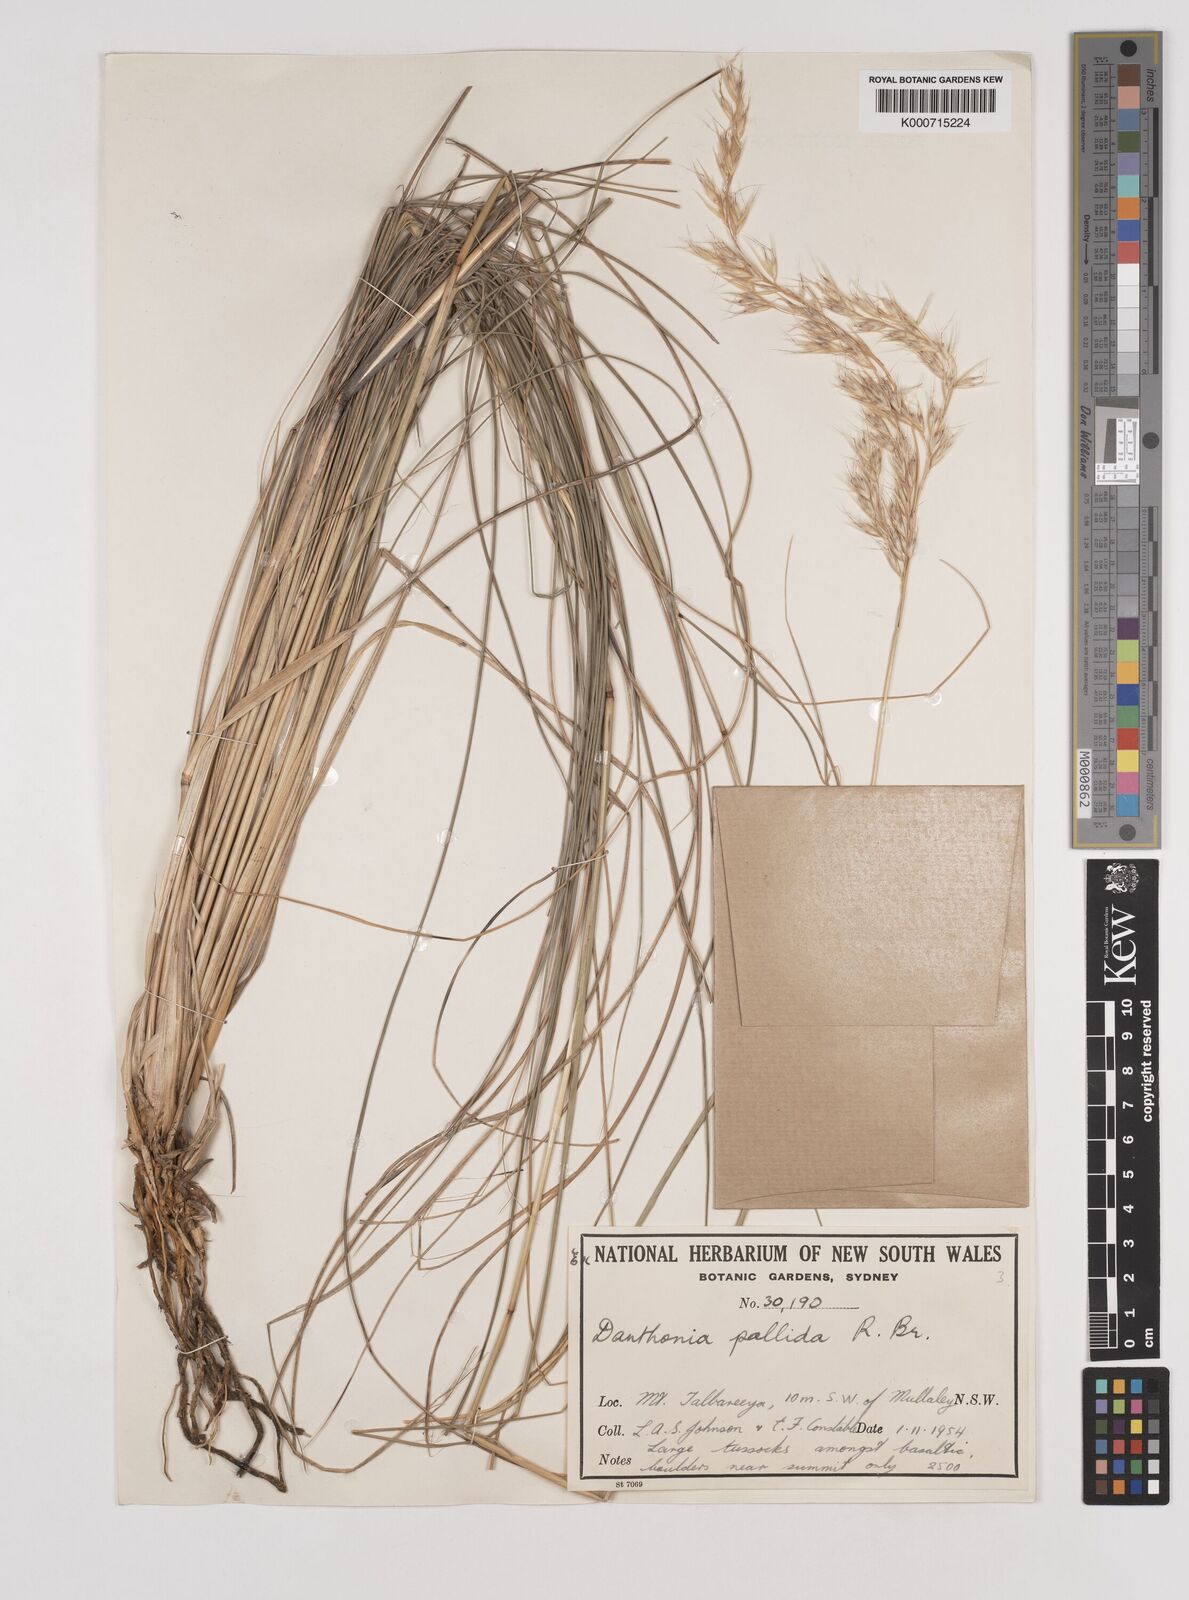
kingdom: Plantae
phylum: Tracheophyta
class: Liliopsida
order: Poales
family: Poaceae
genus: Rytidosperma
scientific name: Rytidosperma
